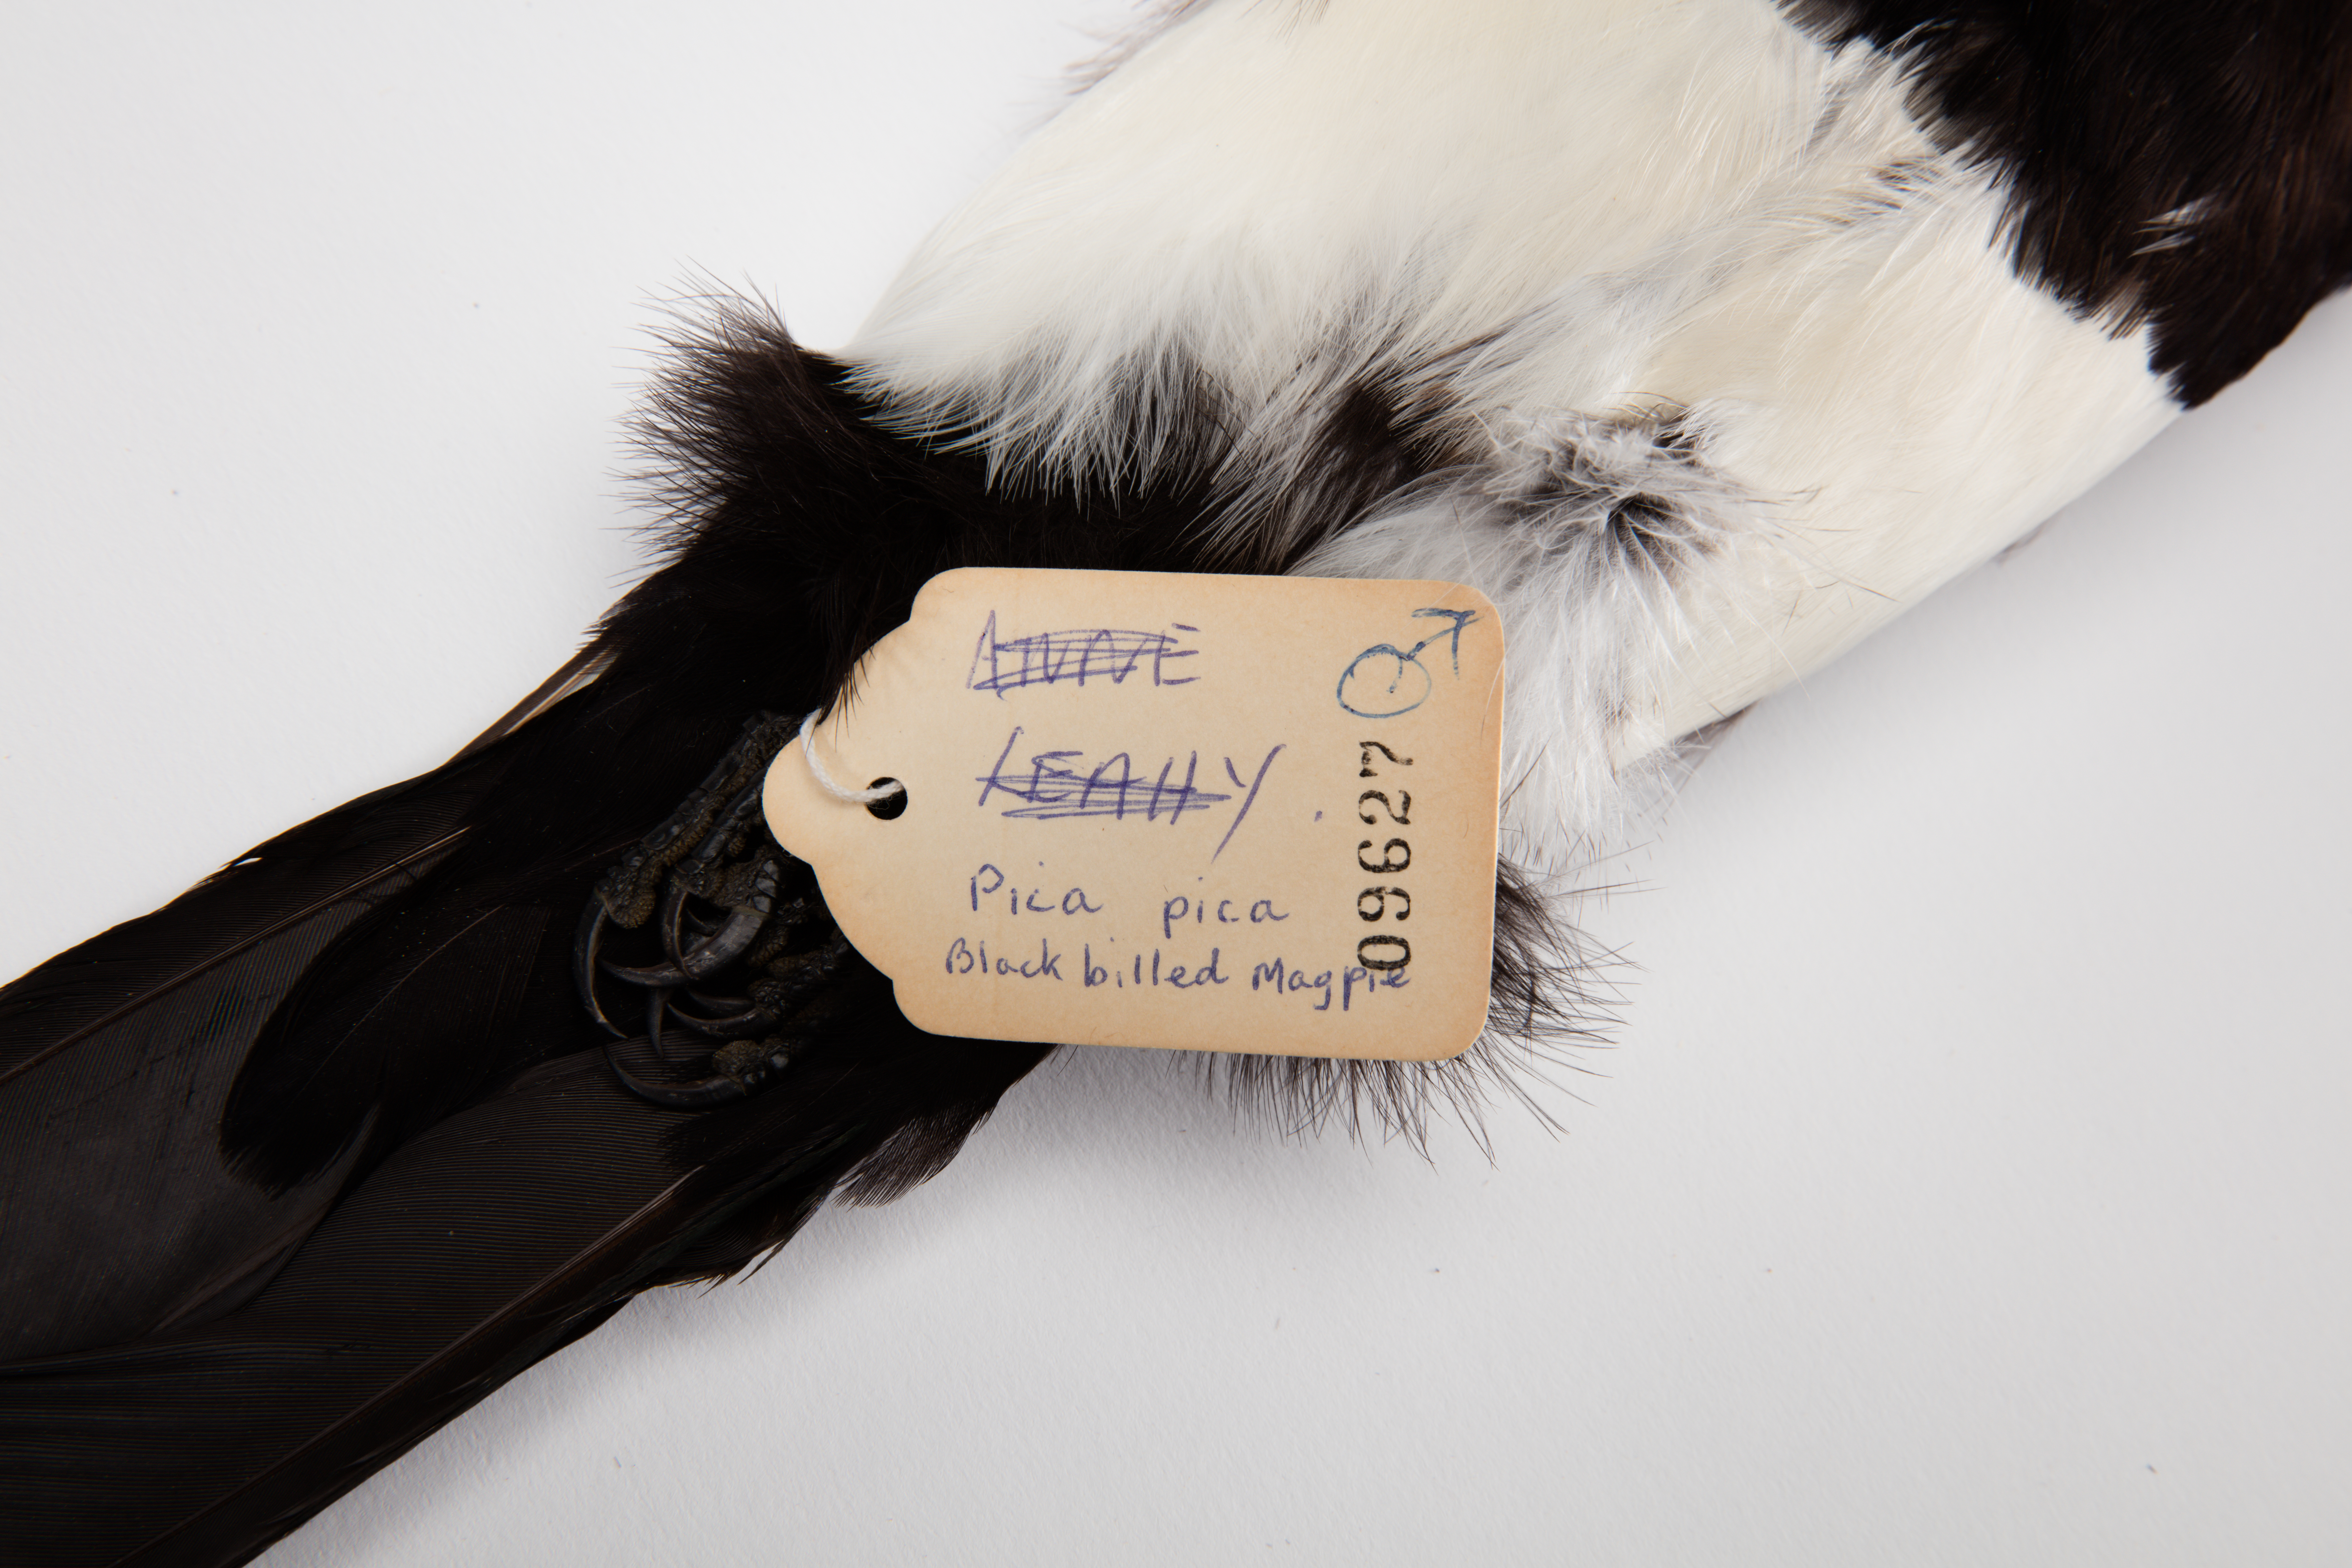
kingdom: Animalia
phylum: Chordata
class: Aves
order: Passeriformes
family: Corvidae
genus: Pica
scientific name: Pica pica
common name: Eurasian magpie
